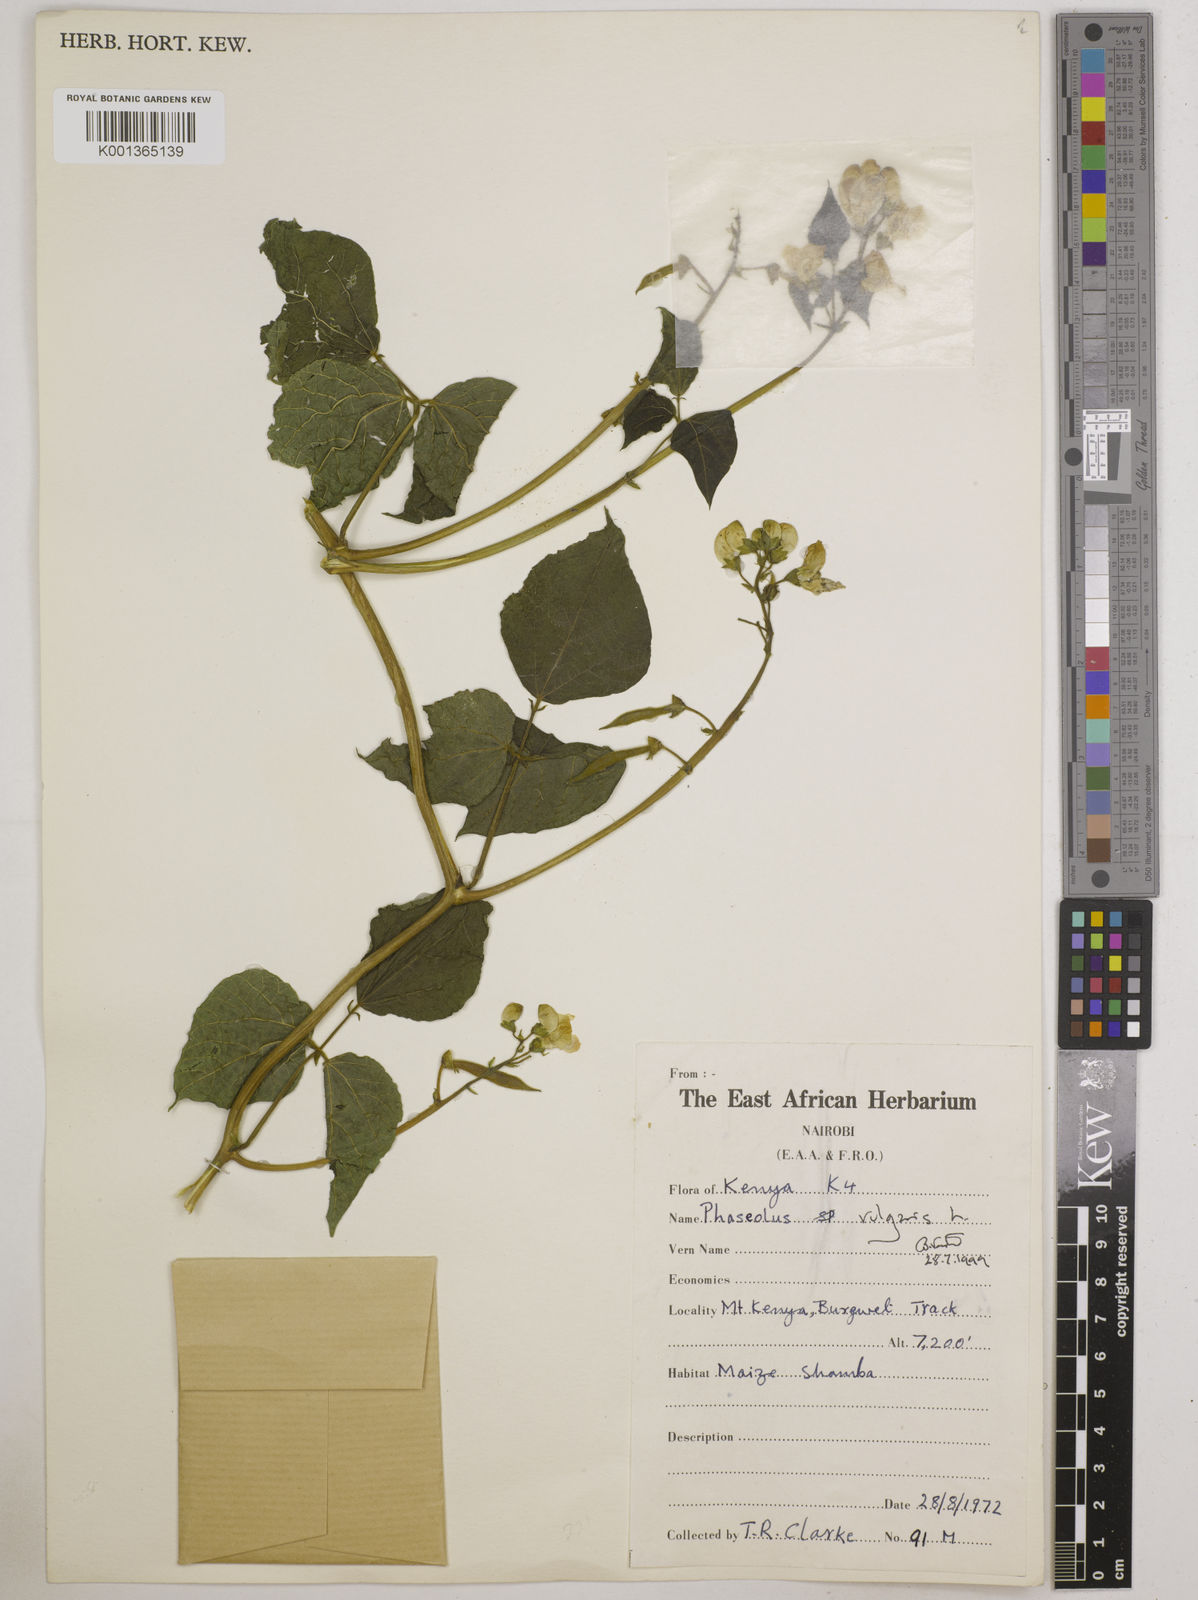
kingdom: Plantae
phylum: Tracheophyta
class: Magnoliopsida
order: Fabales
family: Fabaceae
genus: Phaseolus
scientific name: Phaseolus vulgaris
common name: Bean
